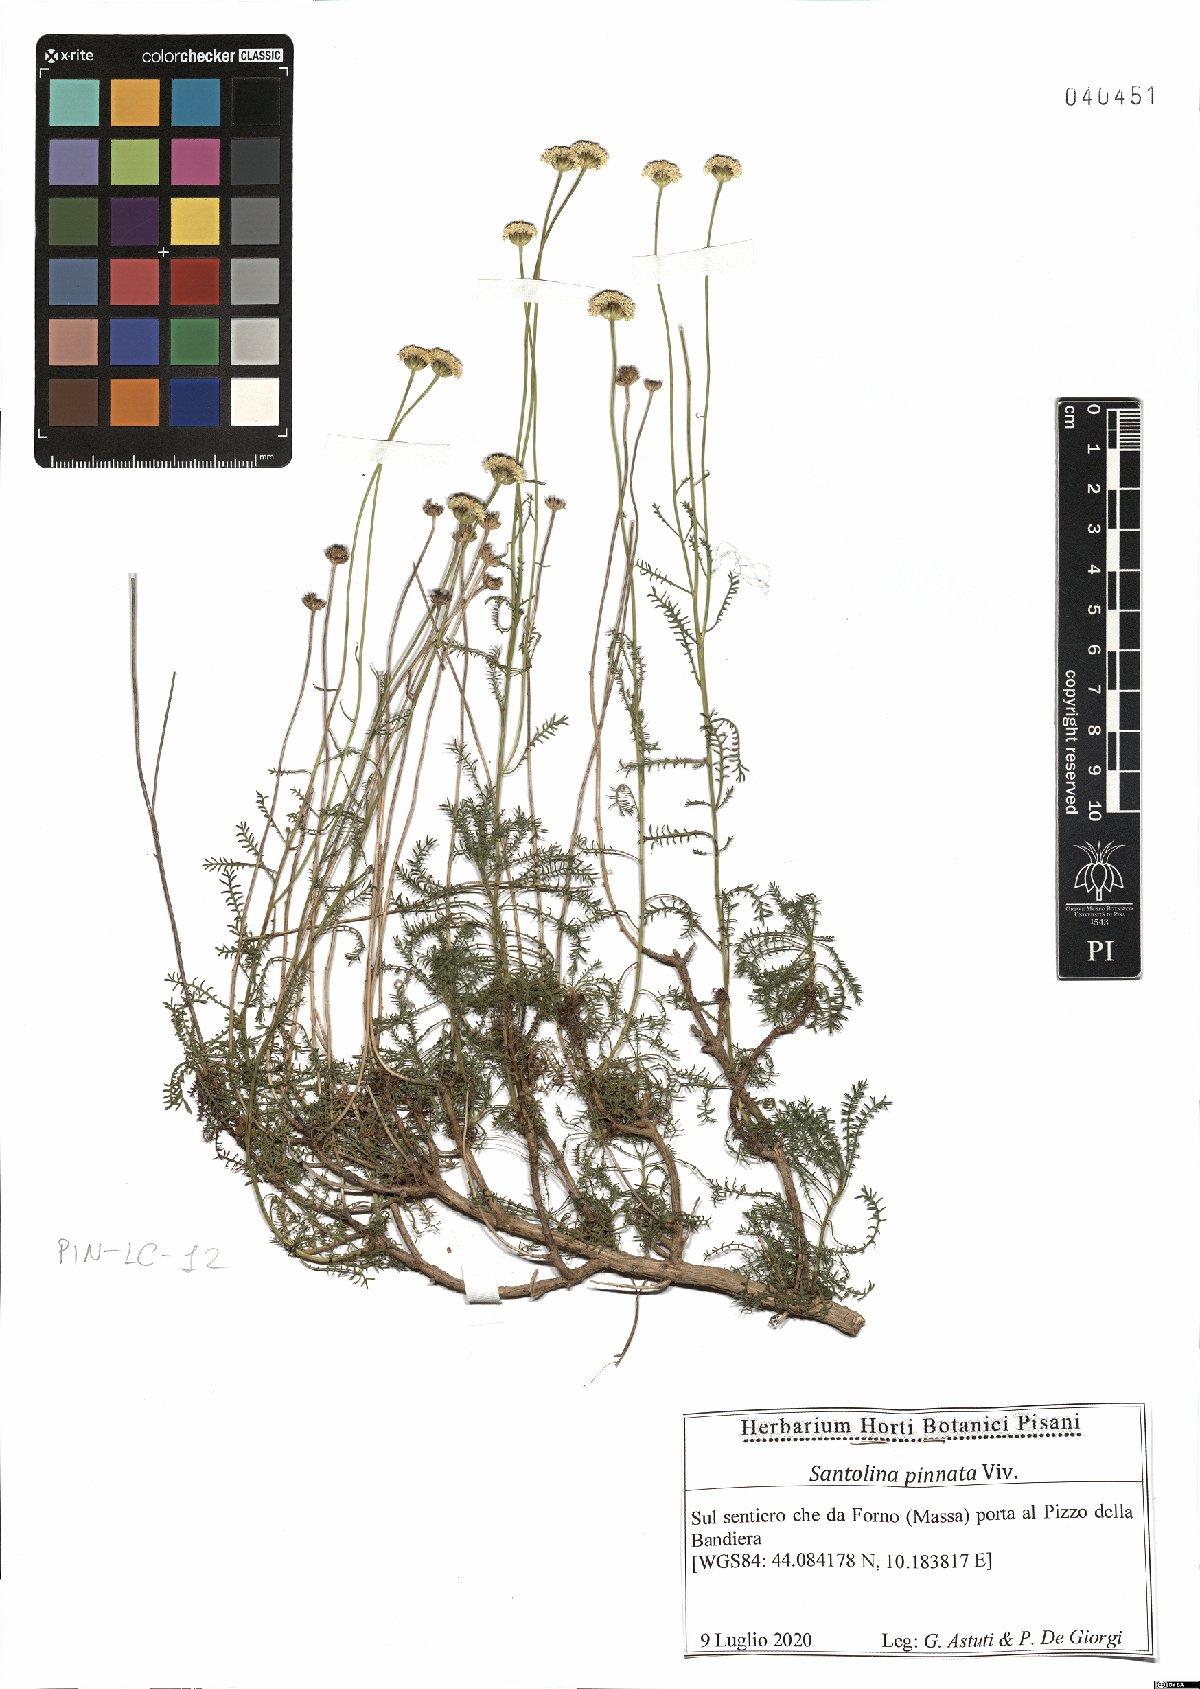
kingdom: Plantae
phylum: Tracheophyta
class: Magnoliopsida
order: Asterales
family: Asteraceae
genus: Santolina
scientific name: Santolina pinnata
